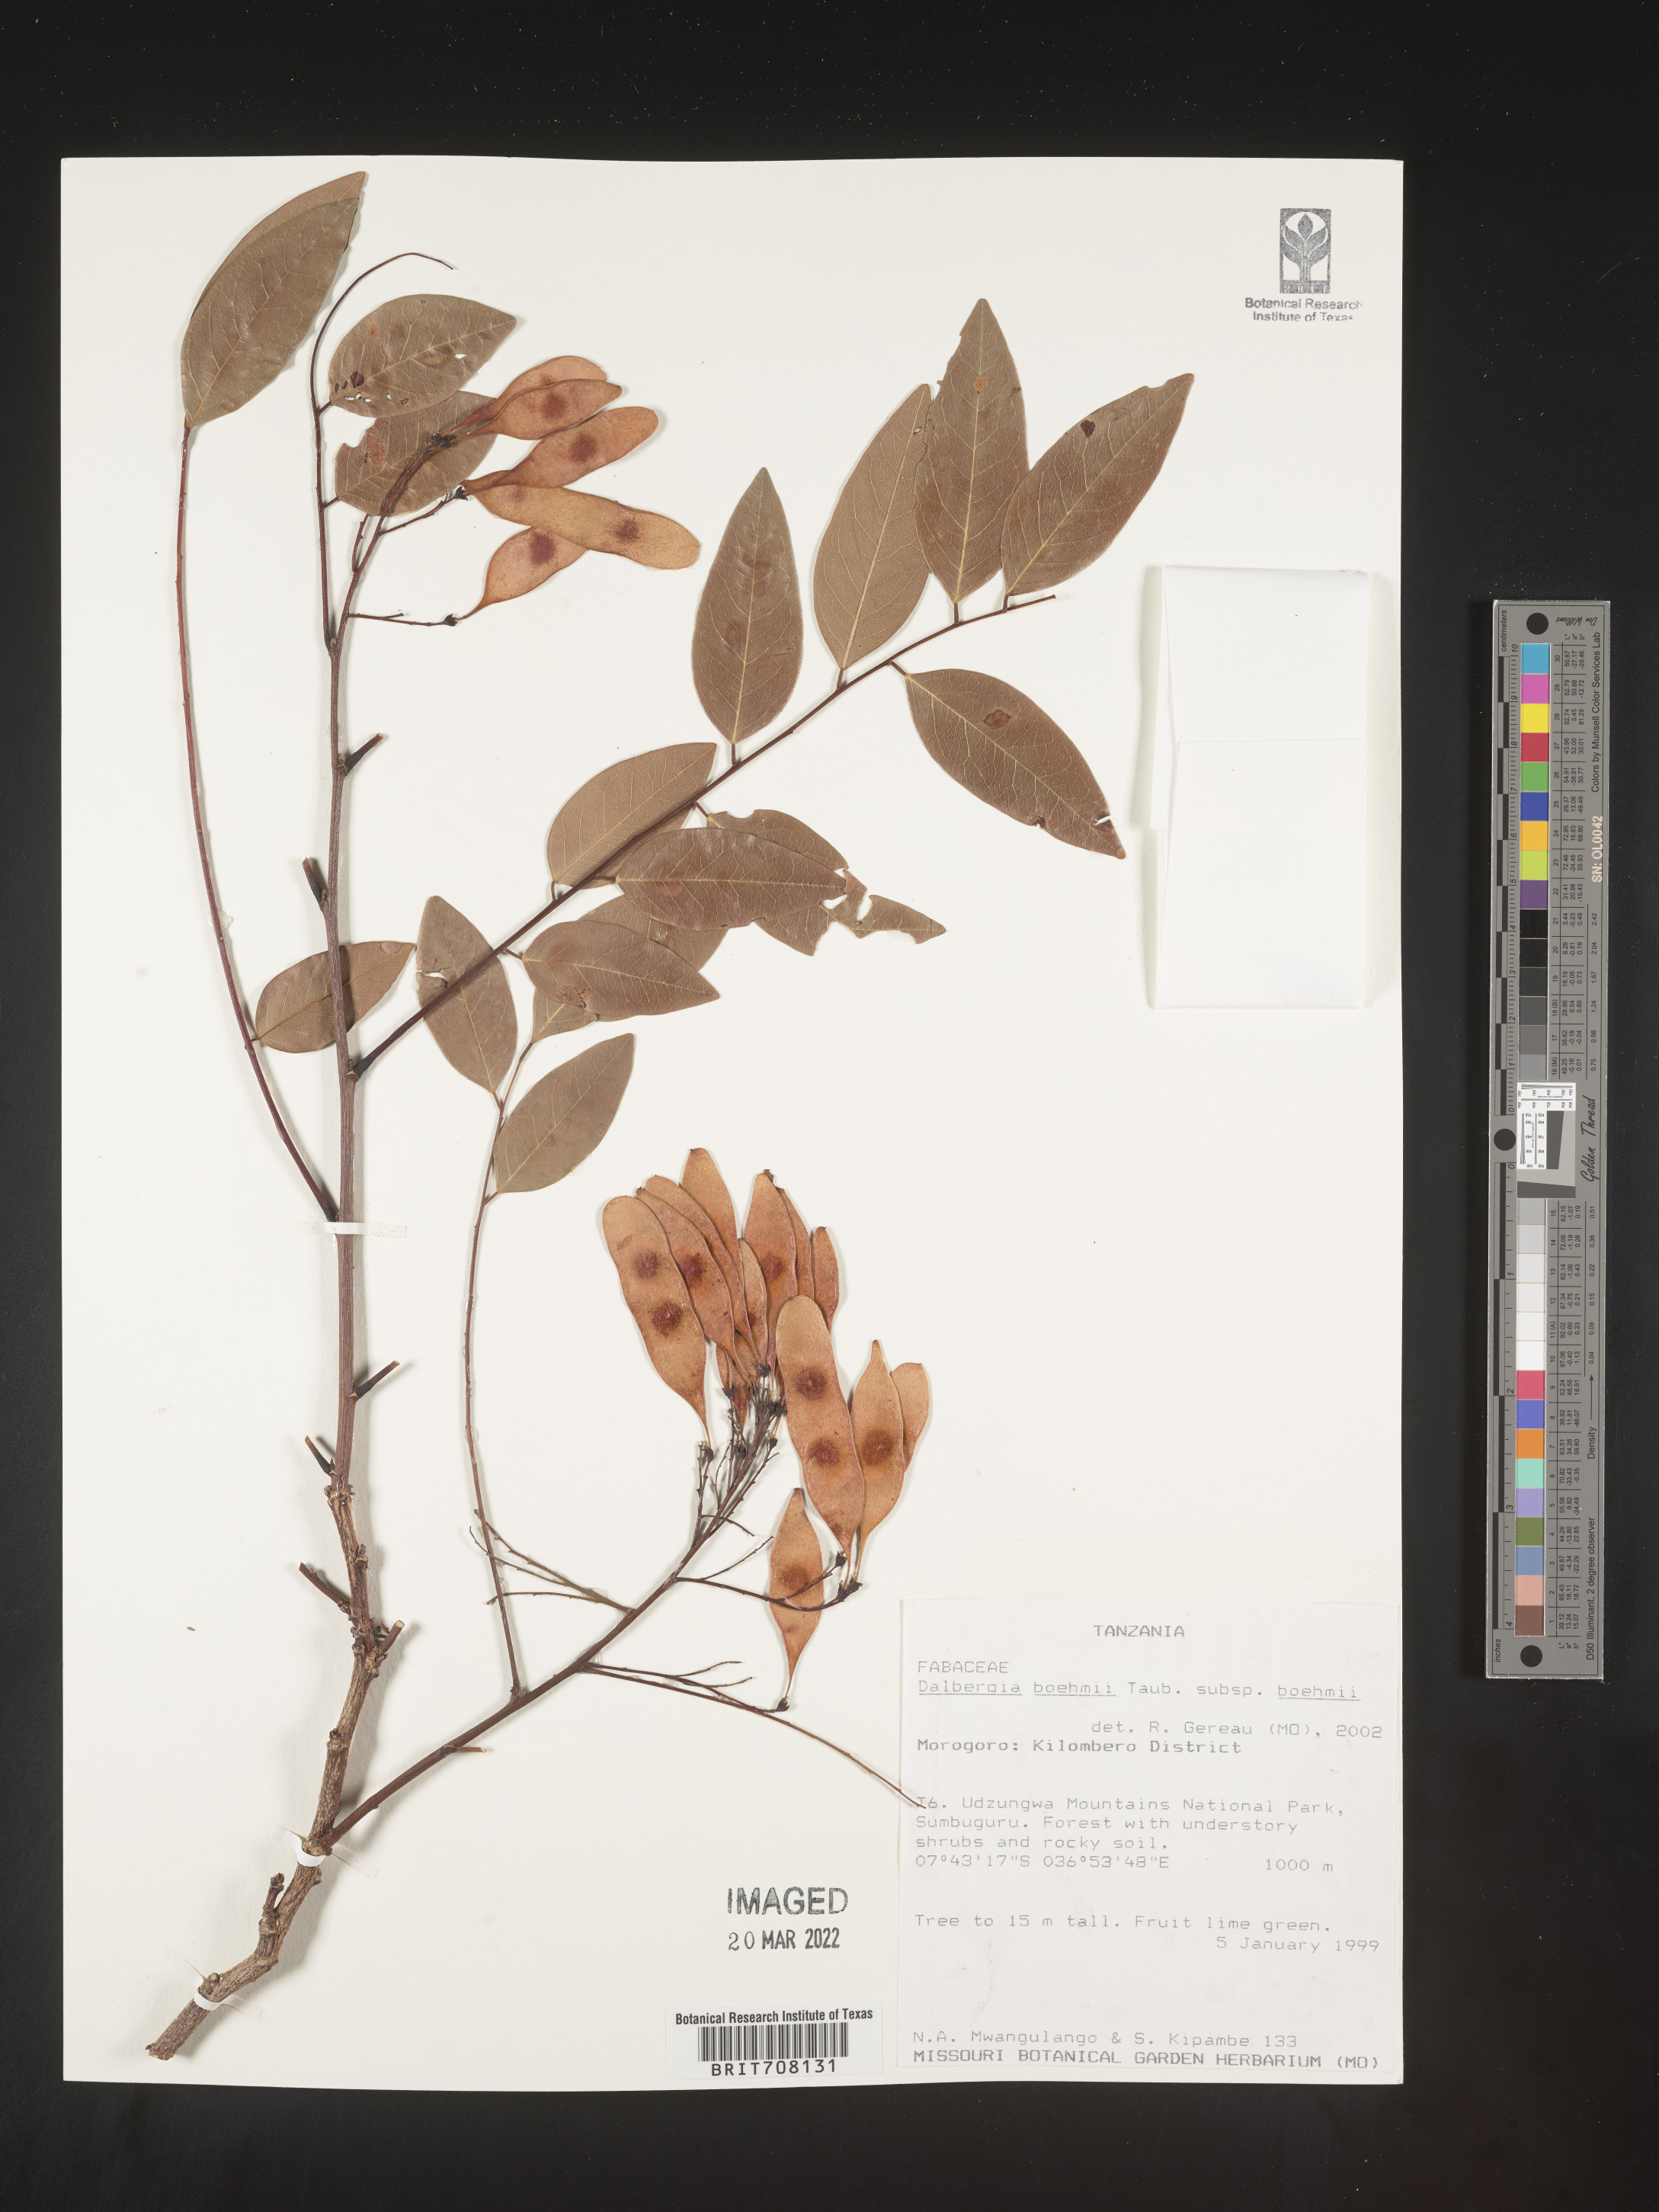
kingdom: Plantae
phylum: Tracheophyta
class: Magnoliopsida
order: Fabales
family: Fabaceae
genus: Dalbergia
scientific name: Dalbergia
